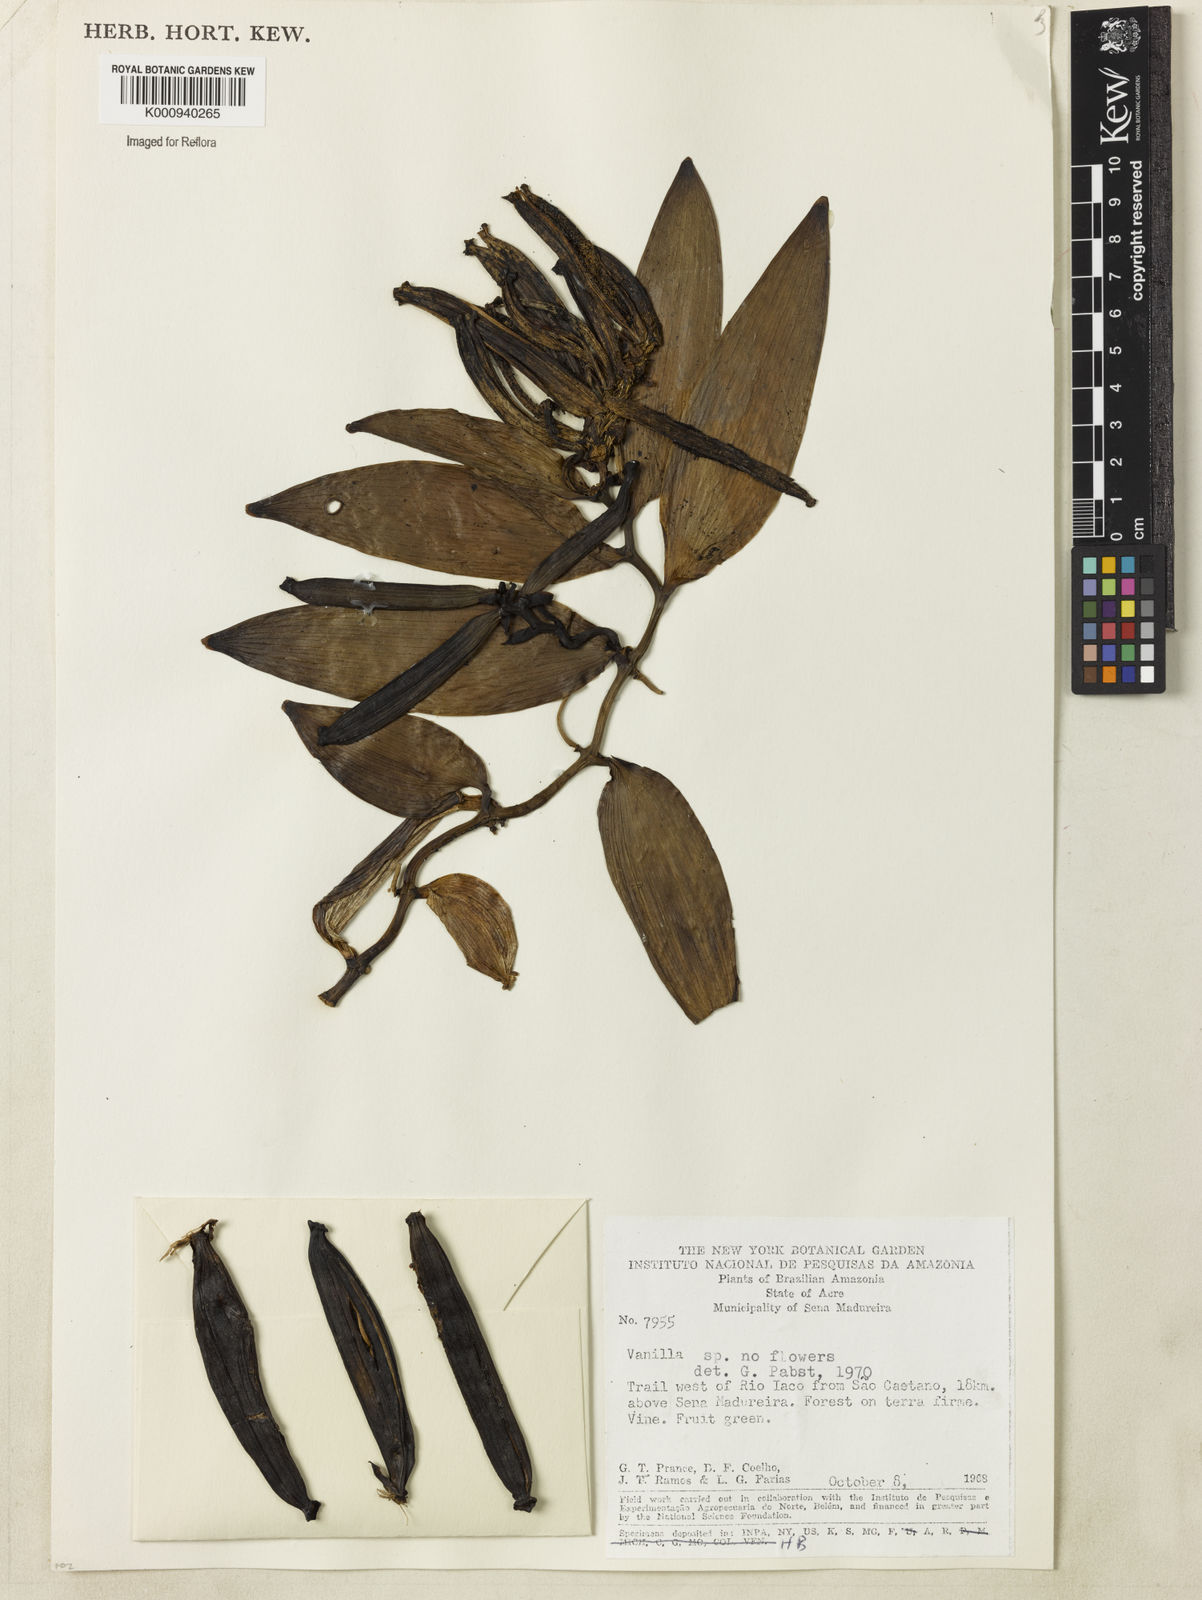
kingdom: Plantae
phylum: Tracheophyta
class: Liliopsida
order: Asparagales
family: Orchidaceae
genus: Vanilla
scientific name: Vanilla palmarum
